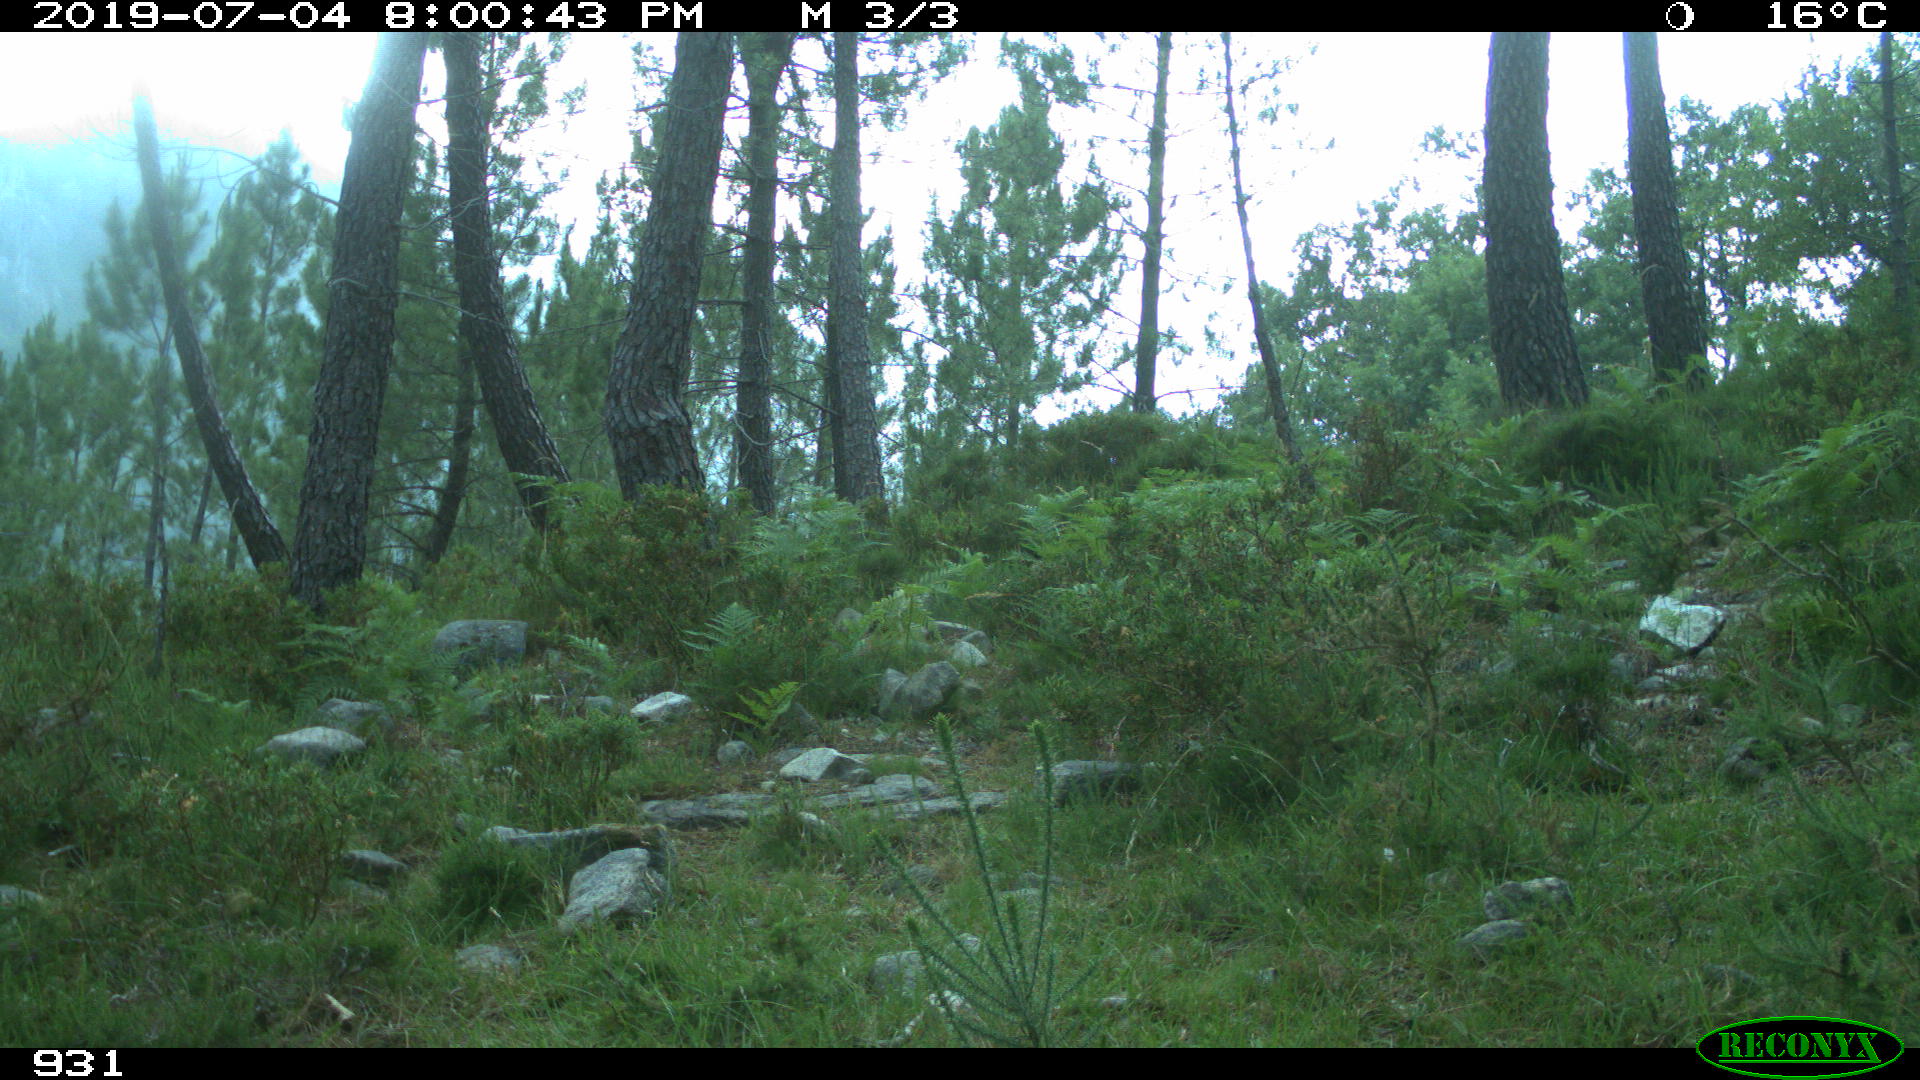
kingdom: Animalia
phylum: Chordata
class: Mammalia
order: Artiodactyla
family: Suidae
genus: Sus
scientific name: Sus scrofa
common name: Wild boar
